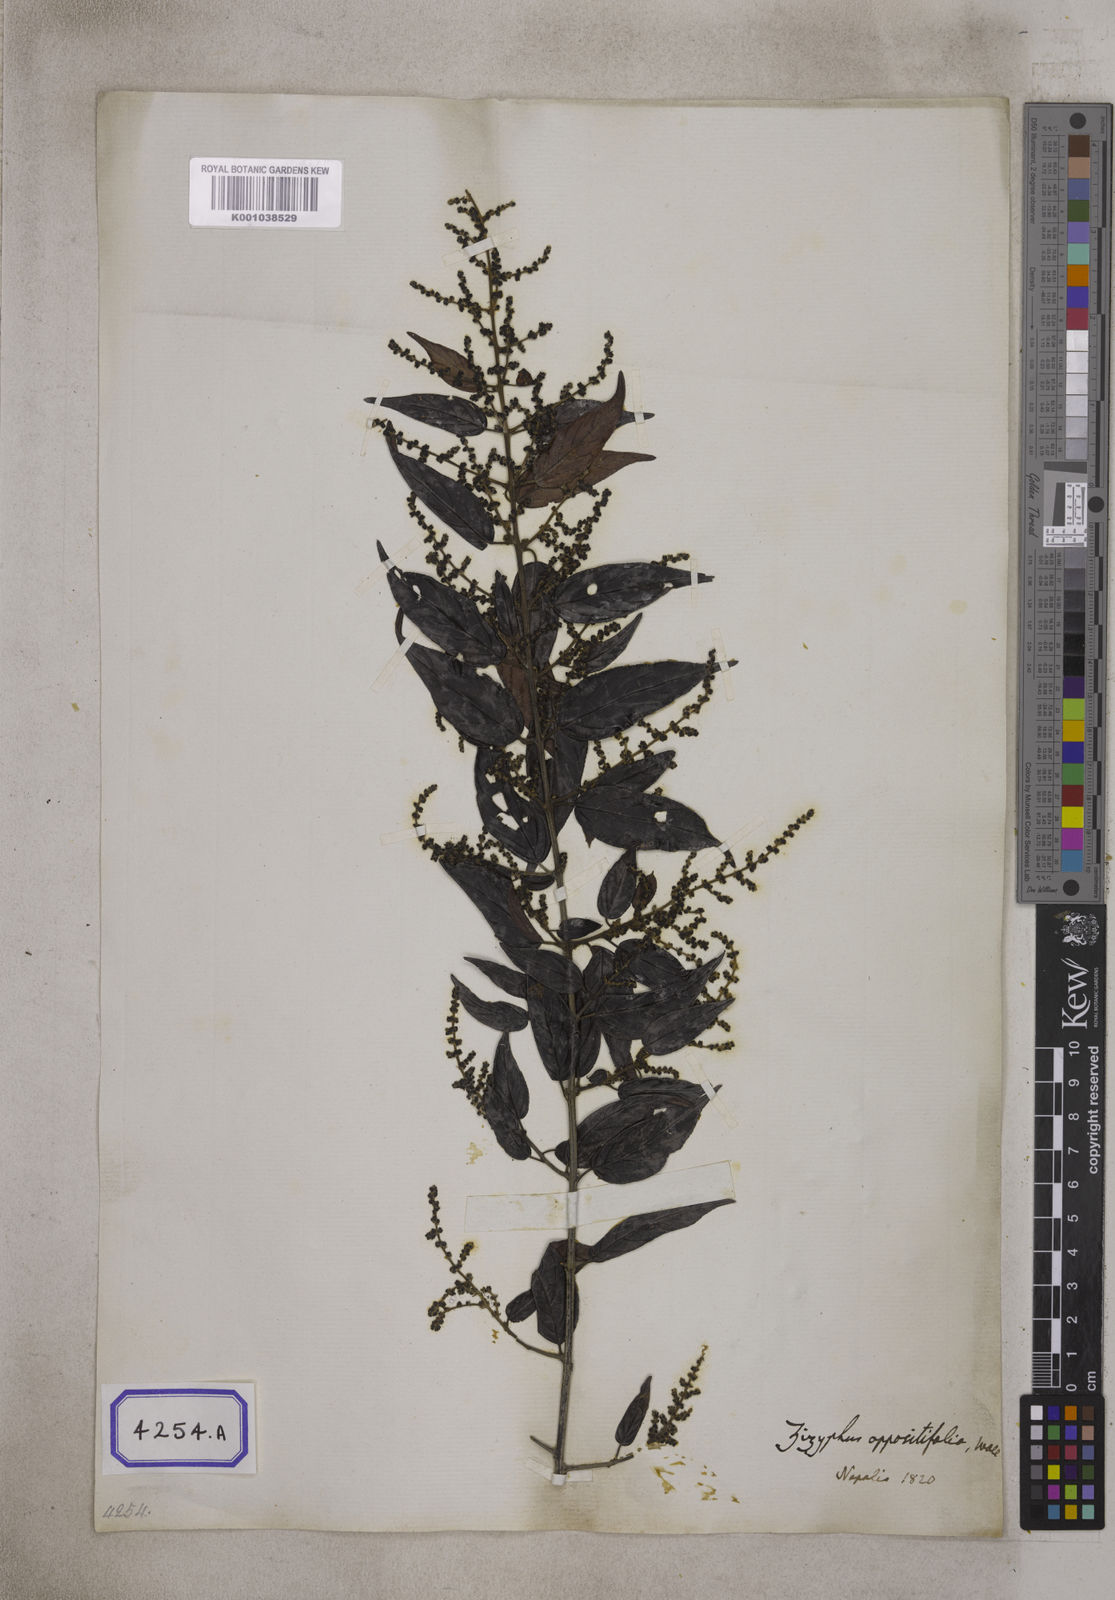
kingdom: Plantae
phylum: Tracheophyta
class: Magnoliopsida
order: Rosales
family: Rhamnaceae
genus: Sageretia
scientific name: Sageretia filiformis
